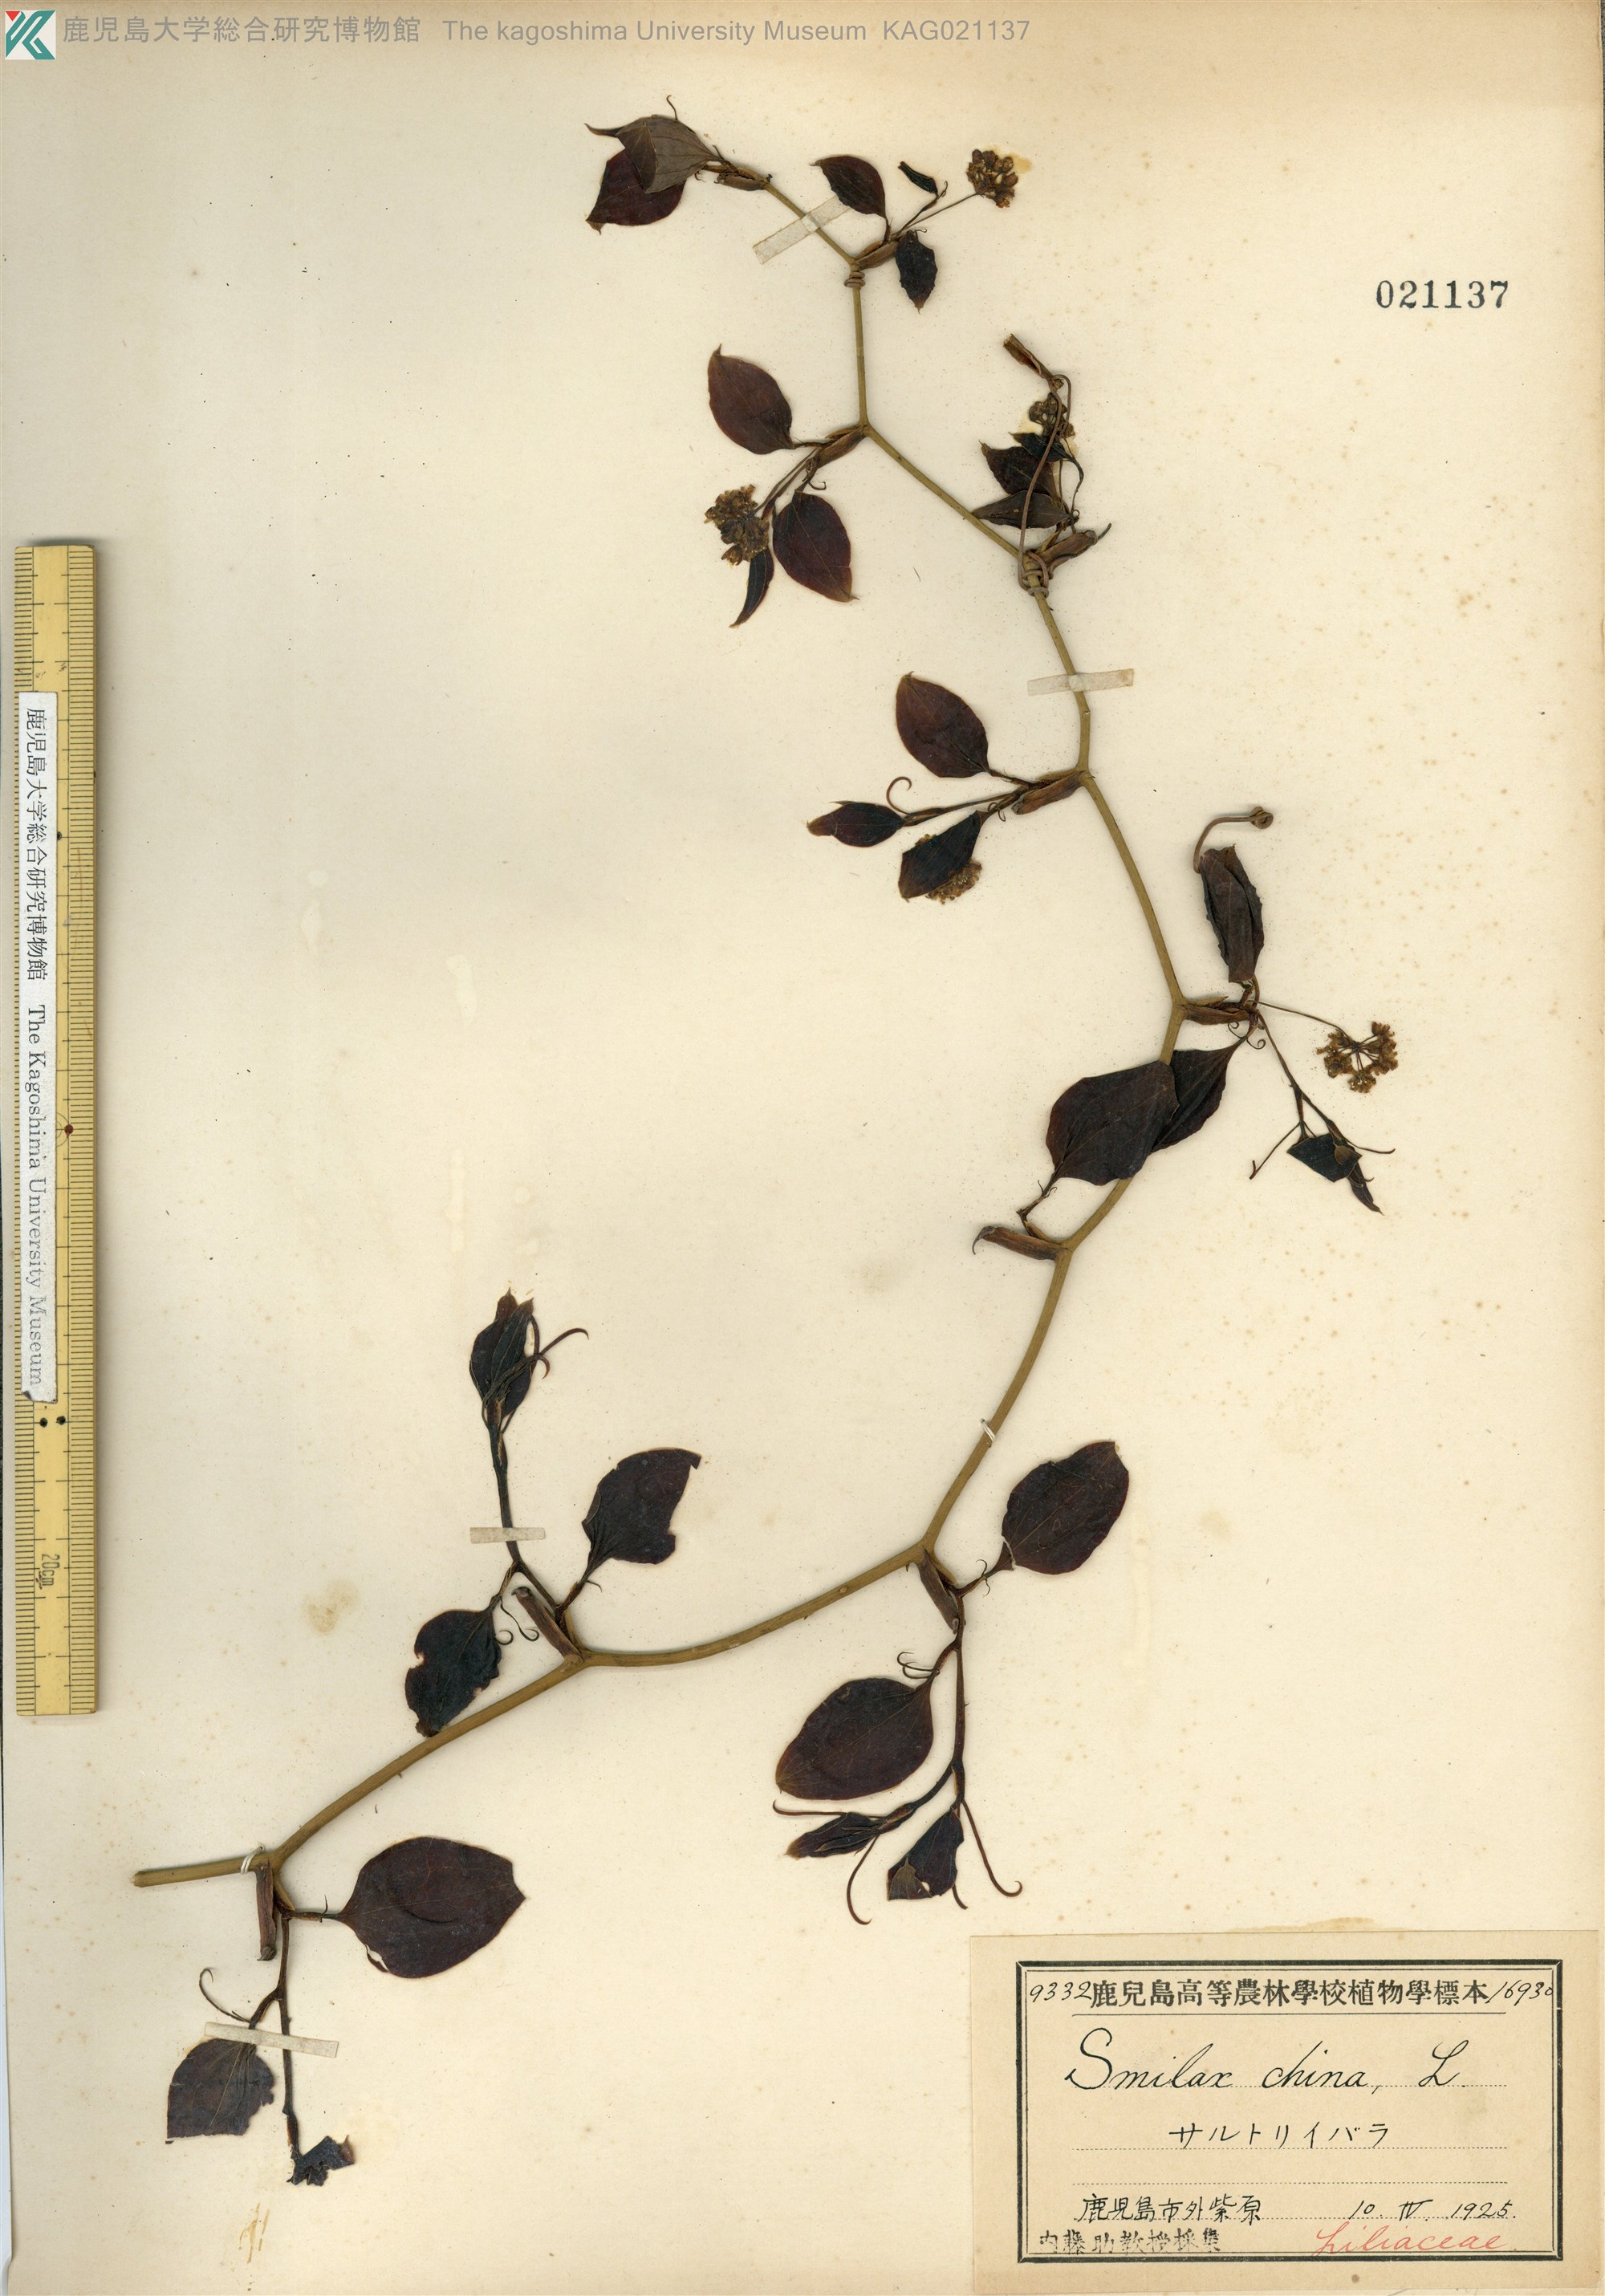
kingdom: Plantae
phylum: Tracheophyta
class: Liliopsida
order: Liliales
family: Smilacaceae
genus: Smilax
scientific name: Smilax china
